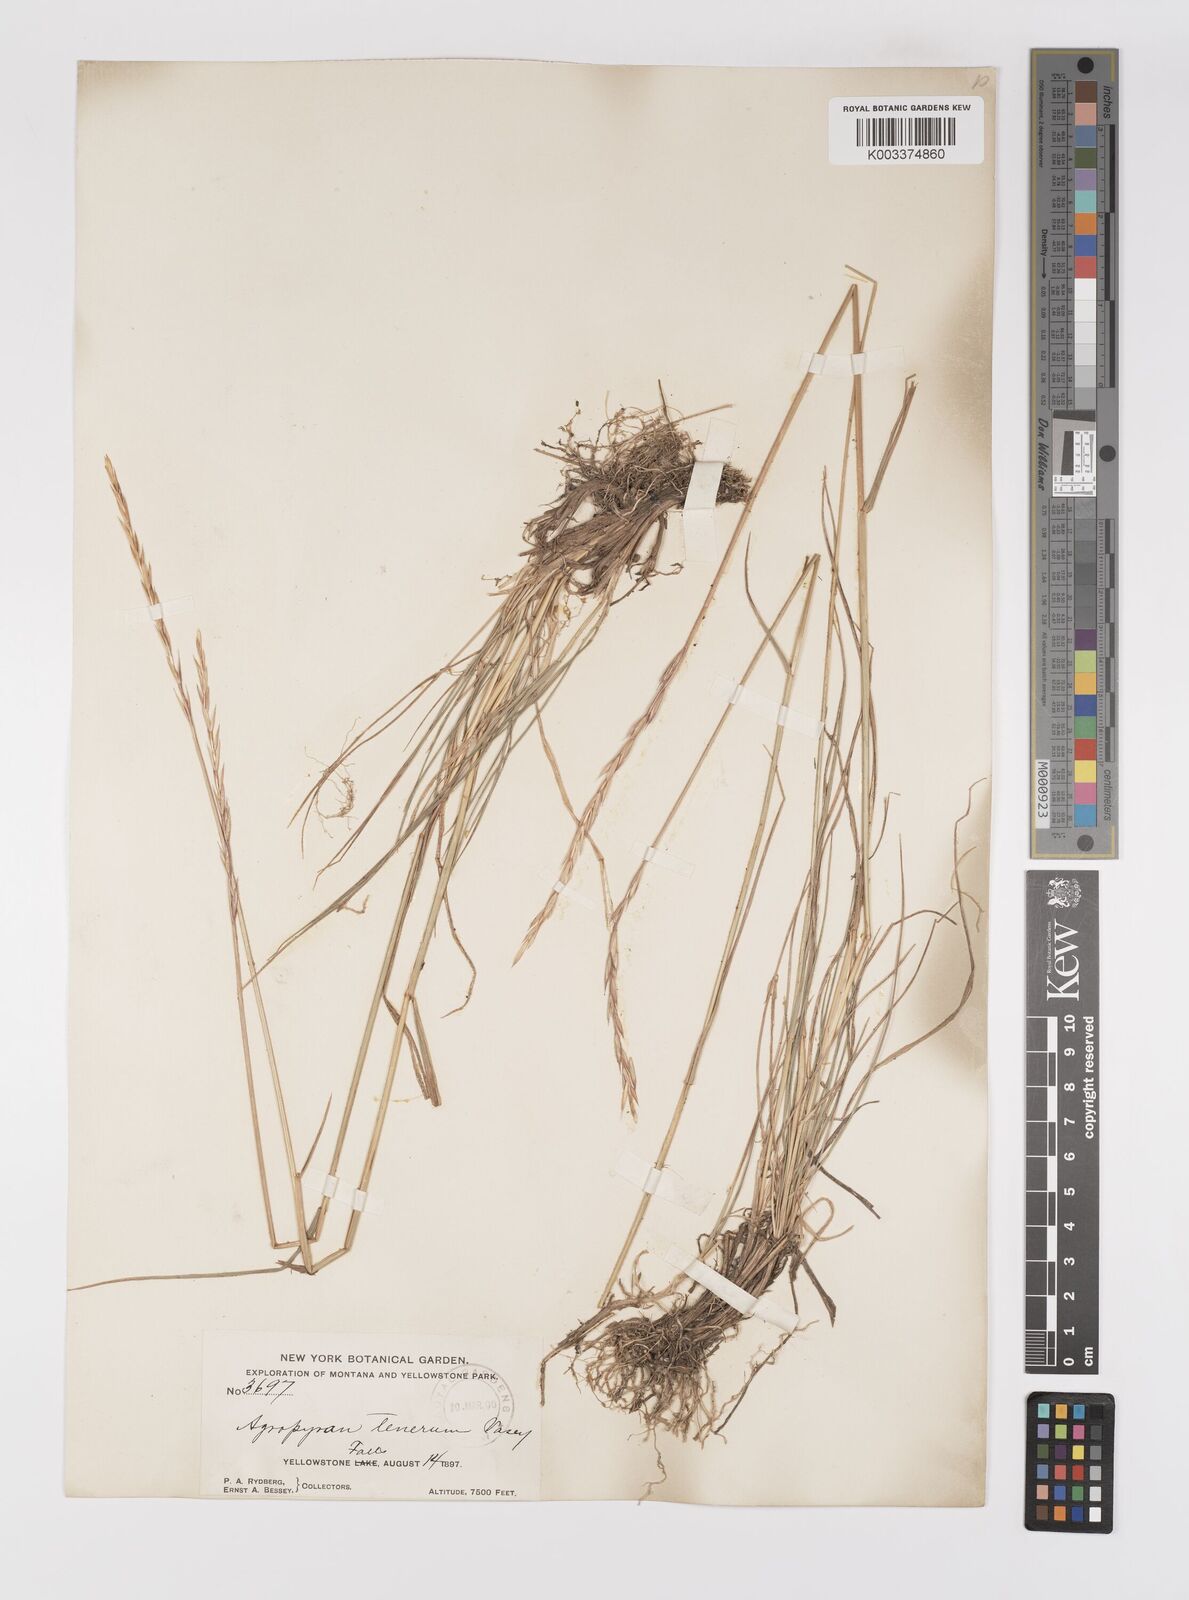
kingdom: Plantae
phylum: Tracheophyta
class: Liliopsida
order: Poales
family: Poaceae
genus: Elymus
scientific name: Elymus violaceus
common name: Arctic wheatgrass
